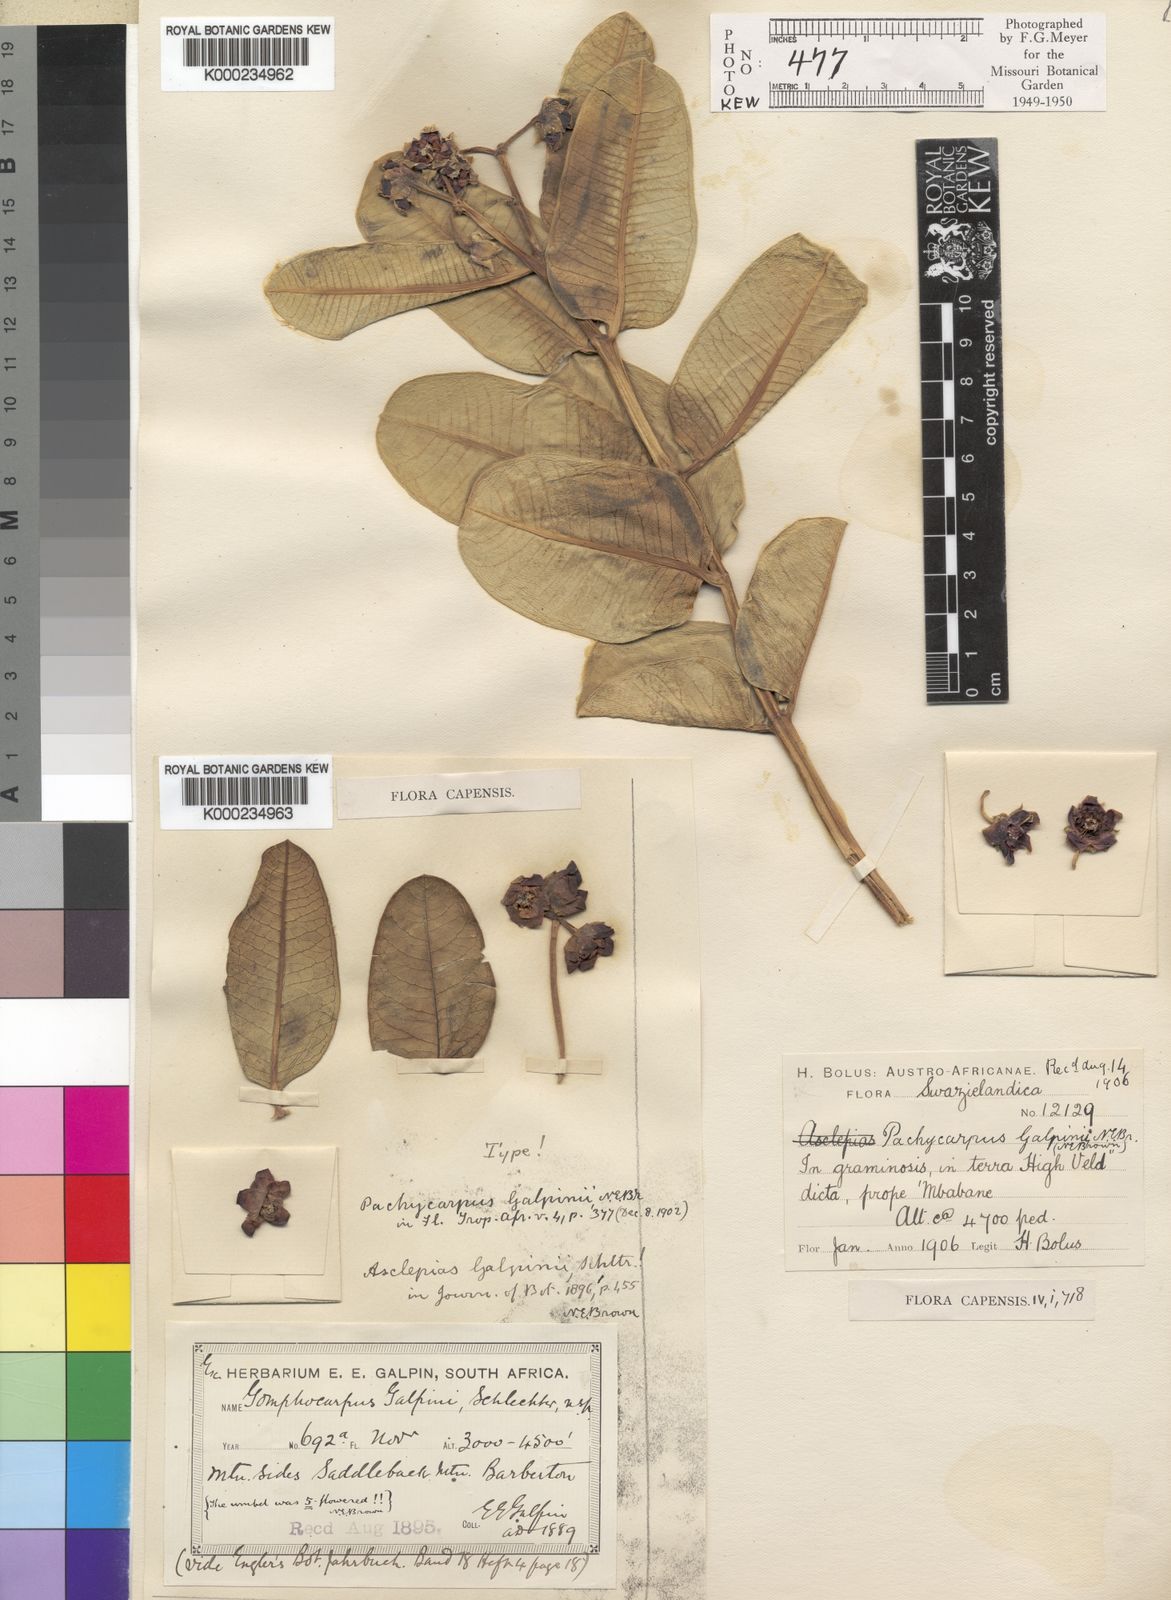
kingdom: Plantae
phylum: Tracheophyta
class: Magnoliopsida
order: Gentianales
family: Apocynaceae
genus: Pachycarpus
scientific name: Pachycarpus galpinii
